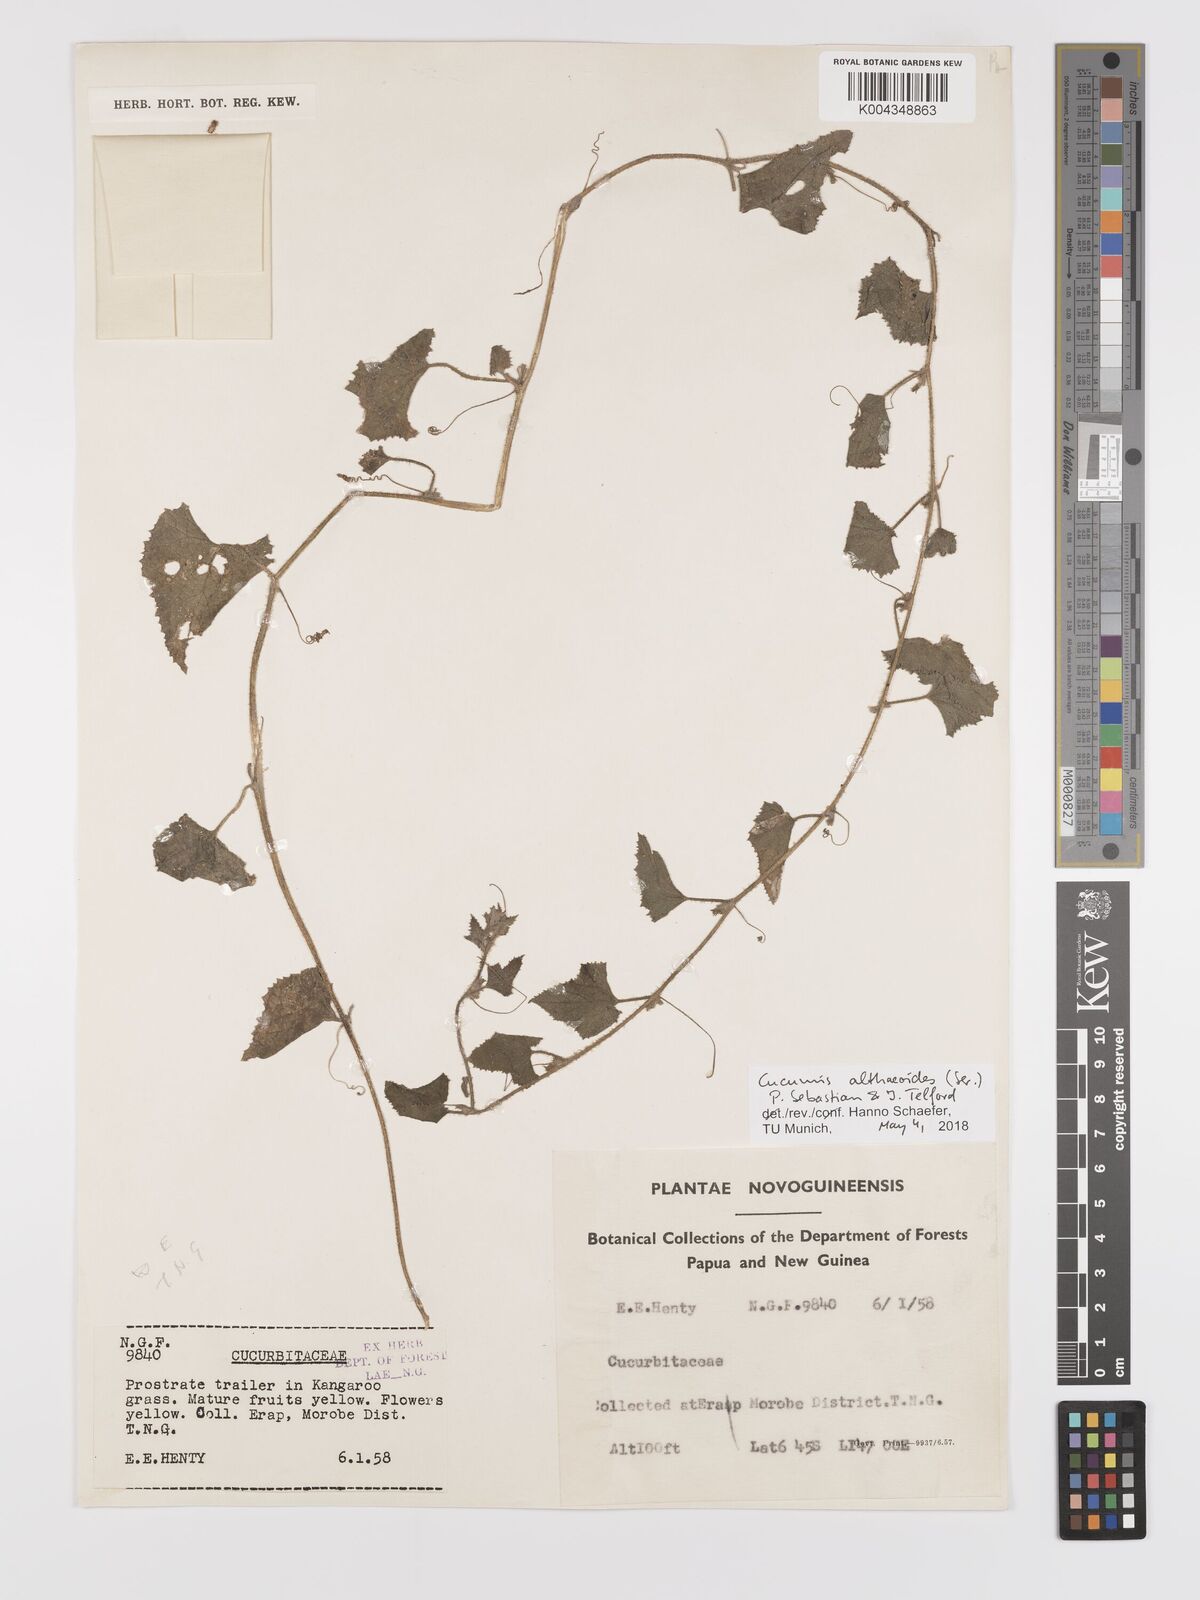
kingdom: Plantae
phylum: Tracheophyta
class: Magnoliopsida
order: Cucurbitales
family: Cucurbitaceae
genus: Cucumis
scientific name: Cucumis maderaspatanus
